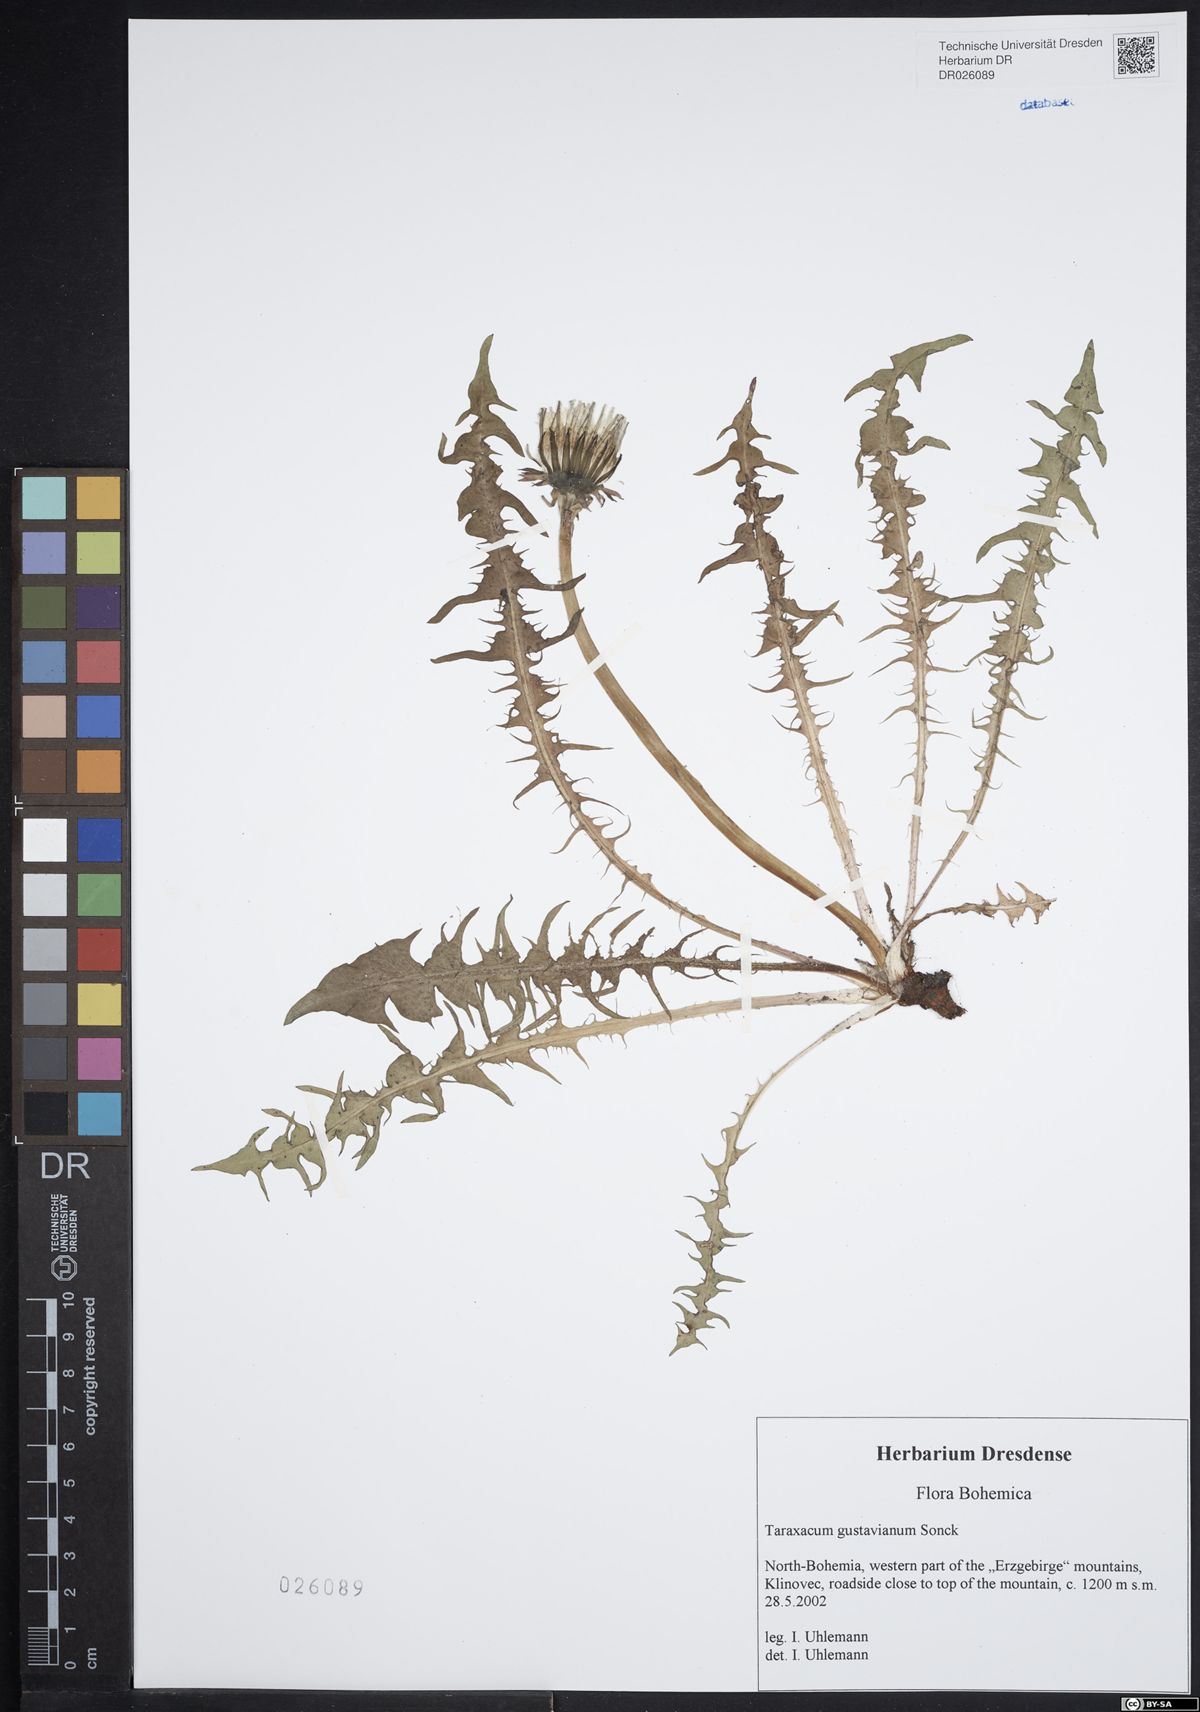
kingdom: Plantae
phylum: Tracheophyta
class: Magnoliopsida
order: Asterales
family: Asteraceae
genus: Taraxacum
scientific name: Taraxacum gustavianum
